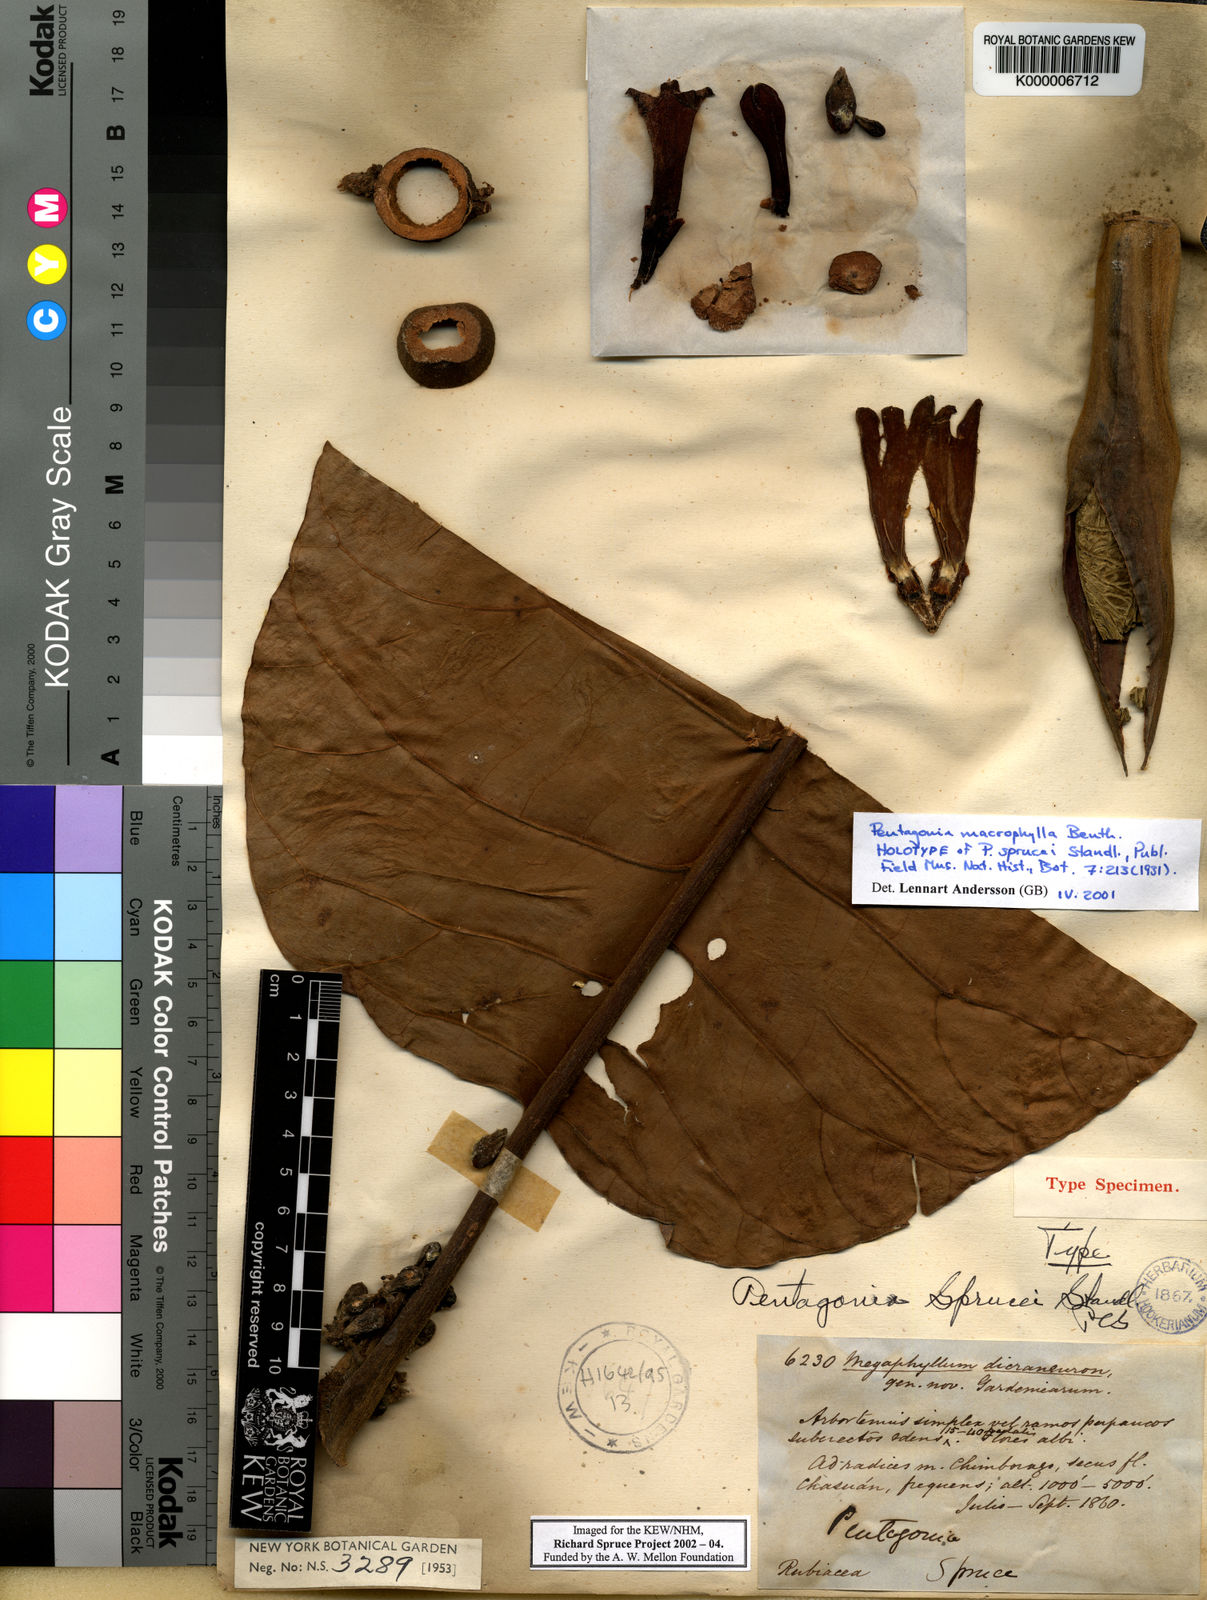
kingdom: Plantae
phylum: Tracheophyta
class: Magnoliopsida
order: Gentianales
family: Rubiaceae
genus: Pentagonia
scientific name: Pentagonia macrophylla
